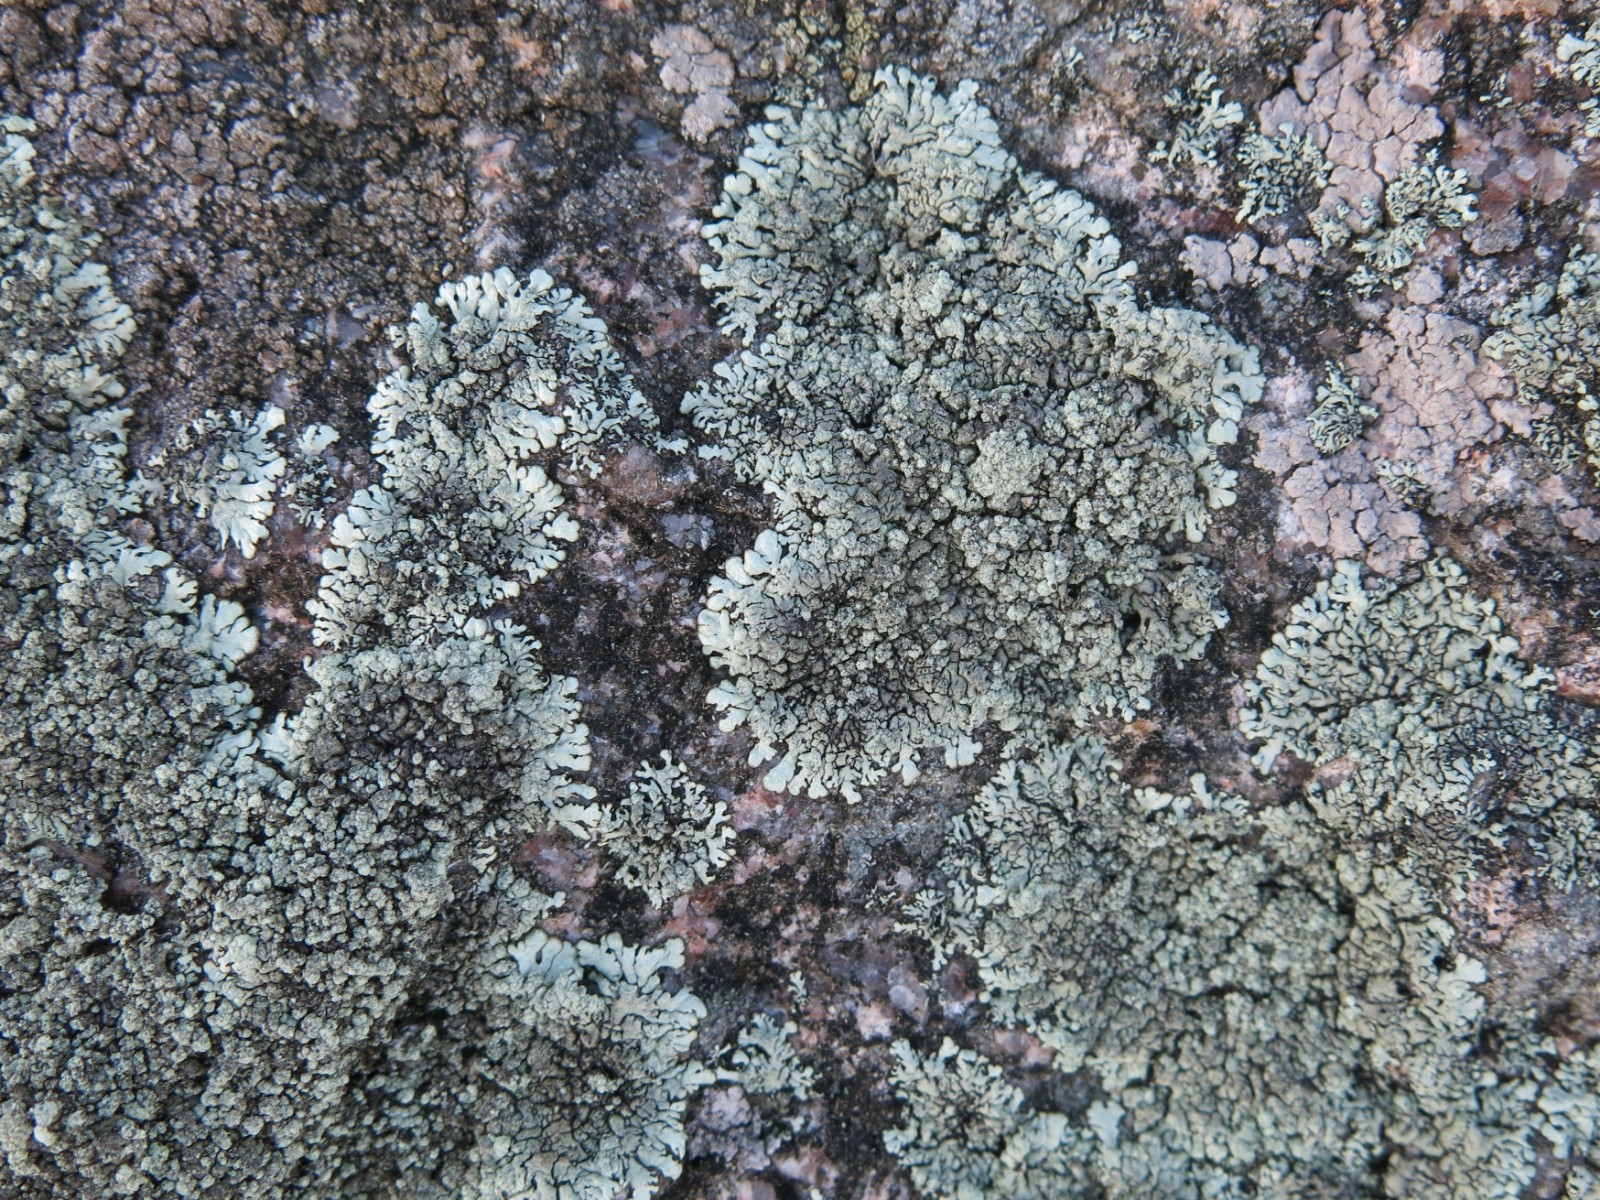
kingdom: Fungi
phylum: Ascomycota
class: Lecanoromycetes
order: Lecanorales
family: Parmeliaceae
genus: Xanthoparmelia
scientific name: Xanthoparmelia mougeotii
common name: liden skållav
